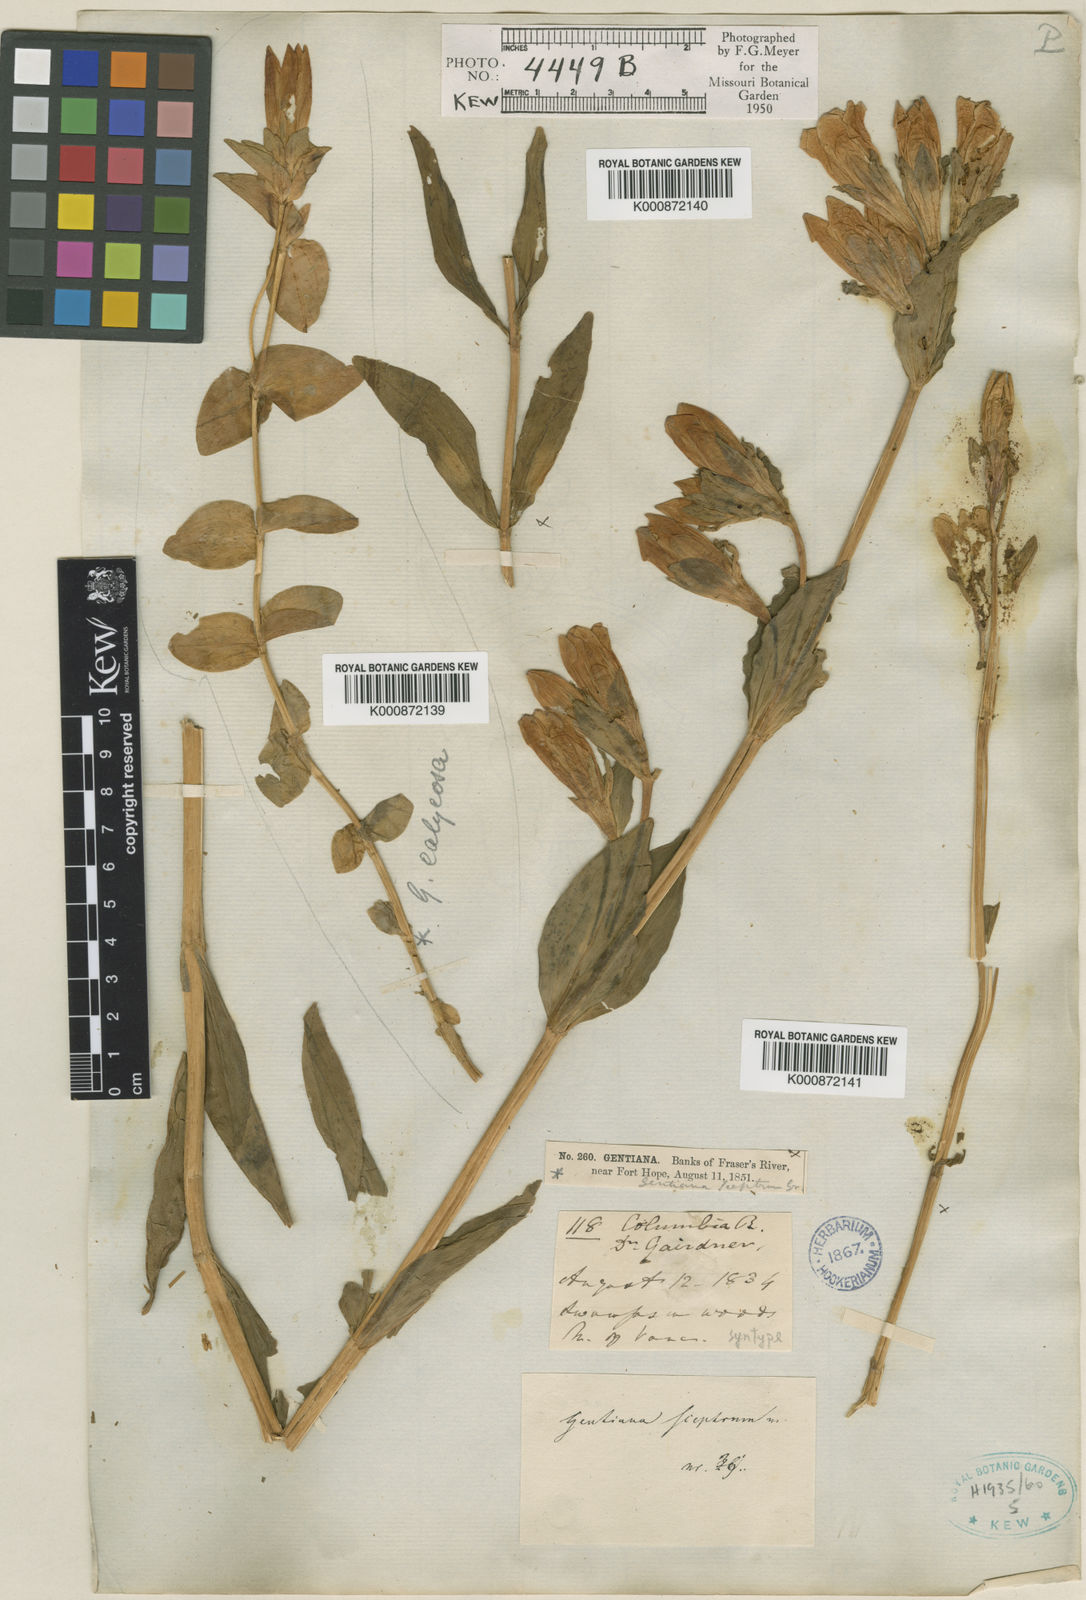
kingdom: Plantae
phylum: Tracheophyta
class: Magnoliopsida
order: Gentianales
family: Gentianaceae
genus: Gentiana
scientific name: Gentiana sceptrum
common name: Pacific gentian
